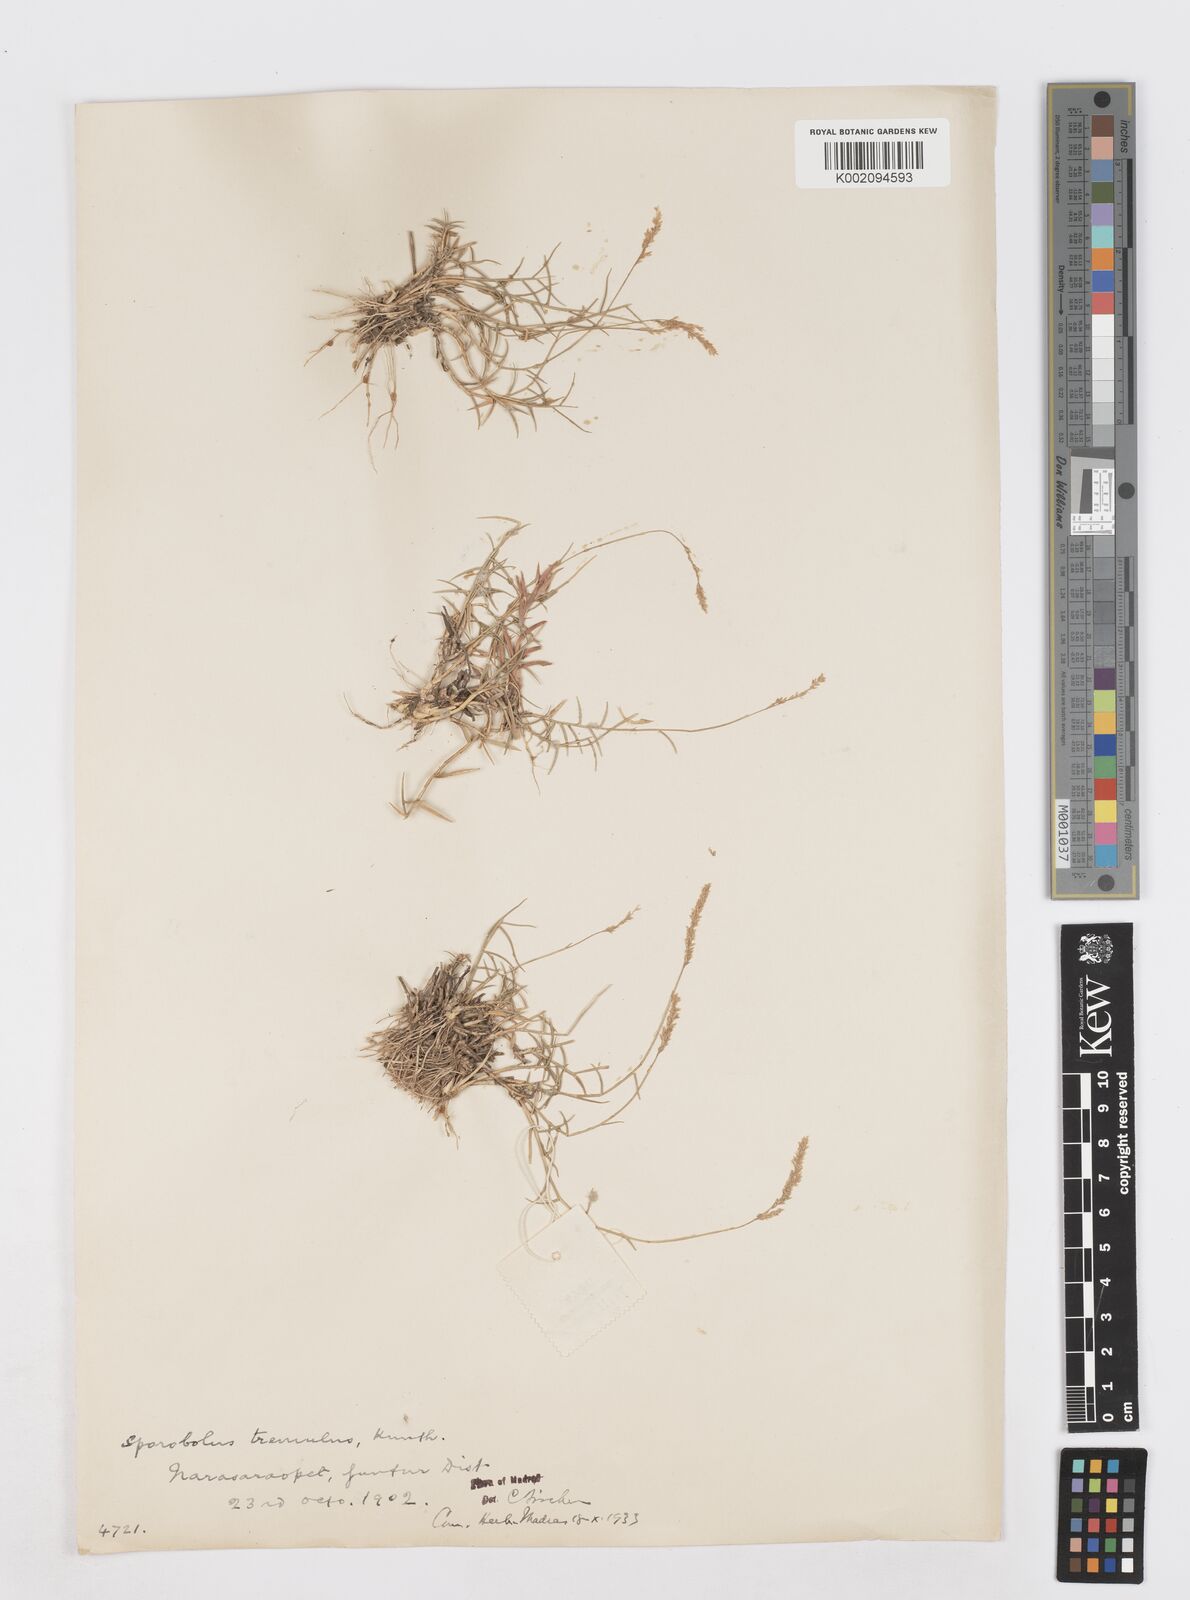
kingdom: Plantae
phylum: Tracheophyta
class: Liliopsida
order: Poales
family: Poaceae
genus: Sporobolus
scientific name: Sporobolus virginicus
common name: Beach dropseed
